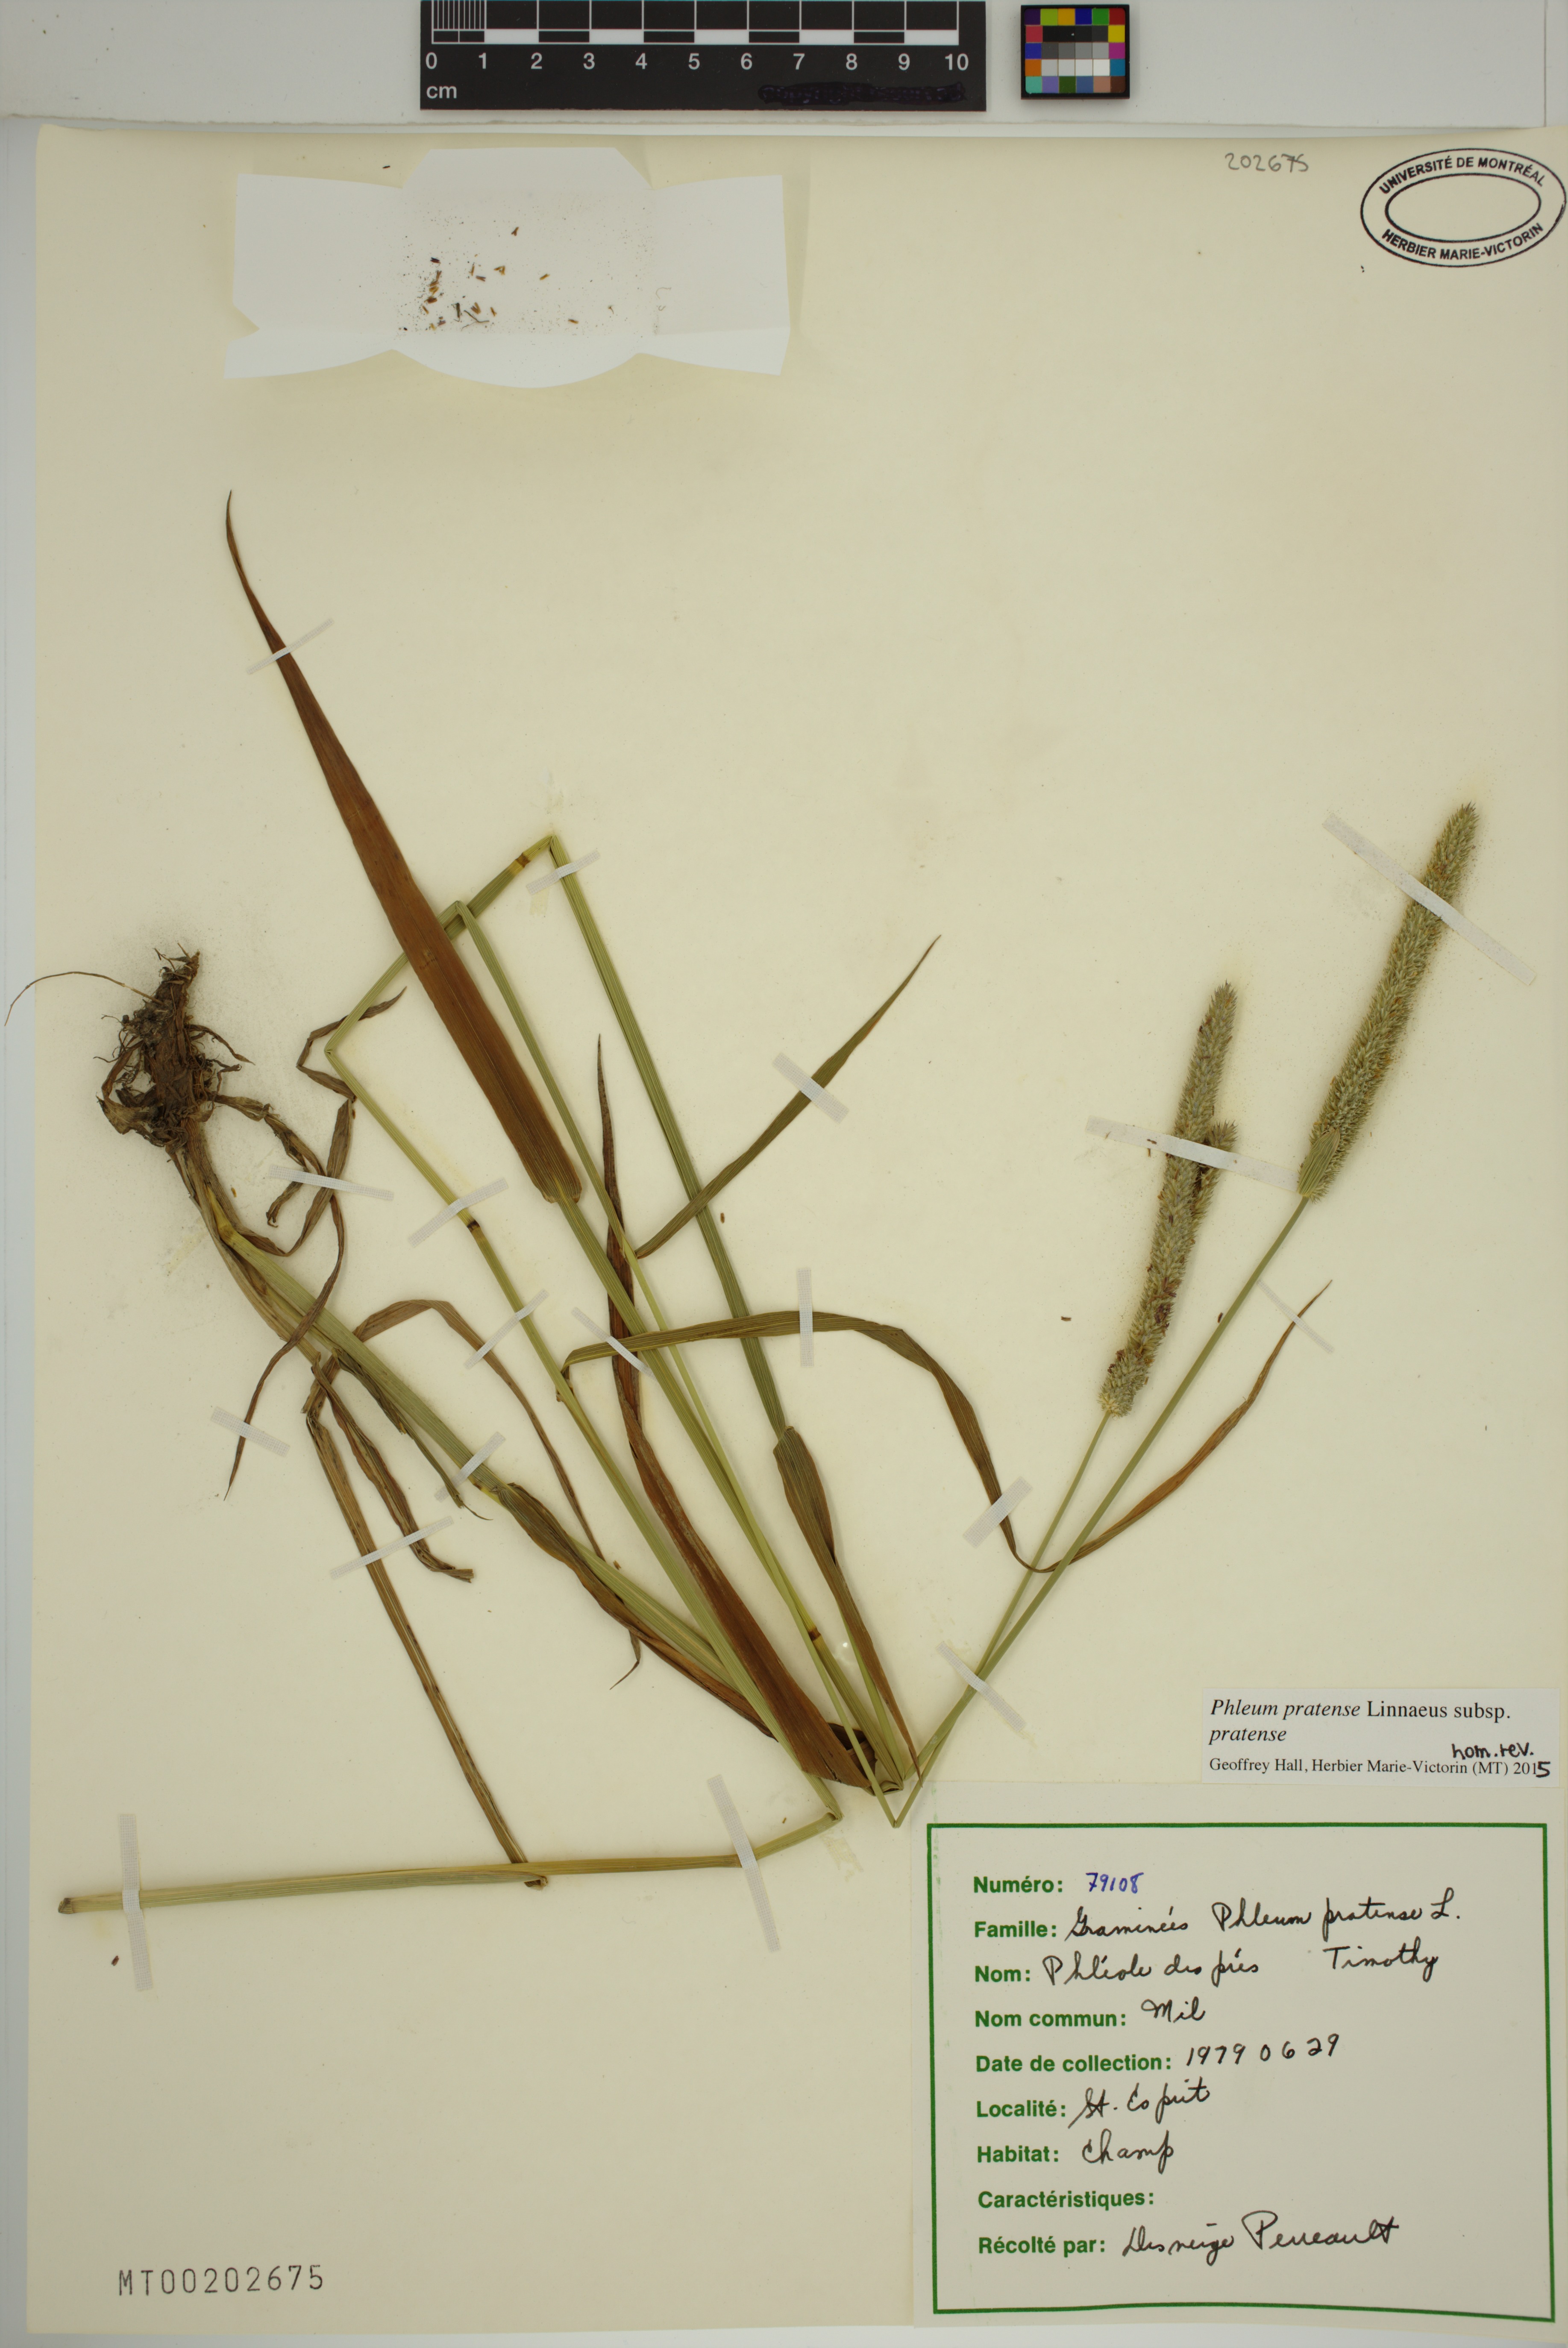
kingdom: Plantae
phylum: Tracheophyta
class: Liliopsida
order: Poales
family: Poaceae
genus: Phleum
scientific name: Phleum pratense
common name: Timothy grass
